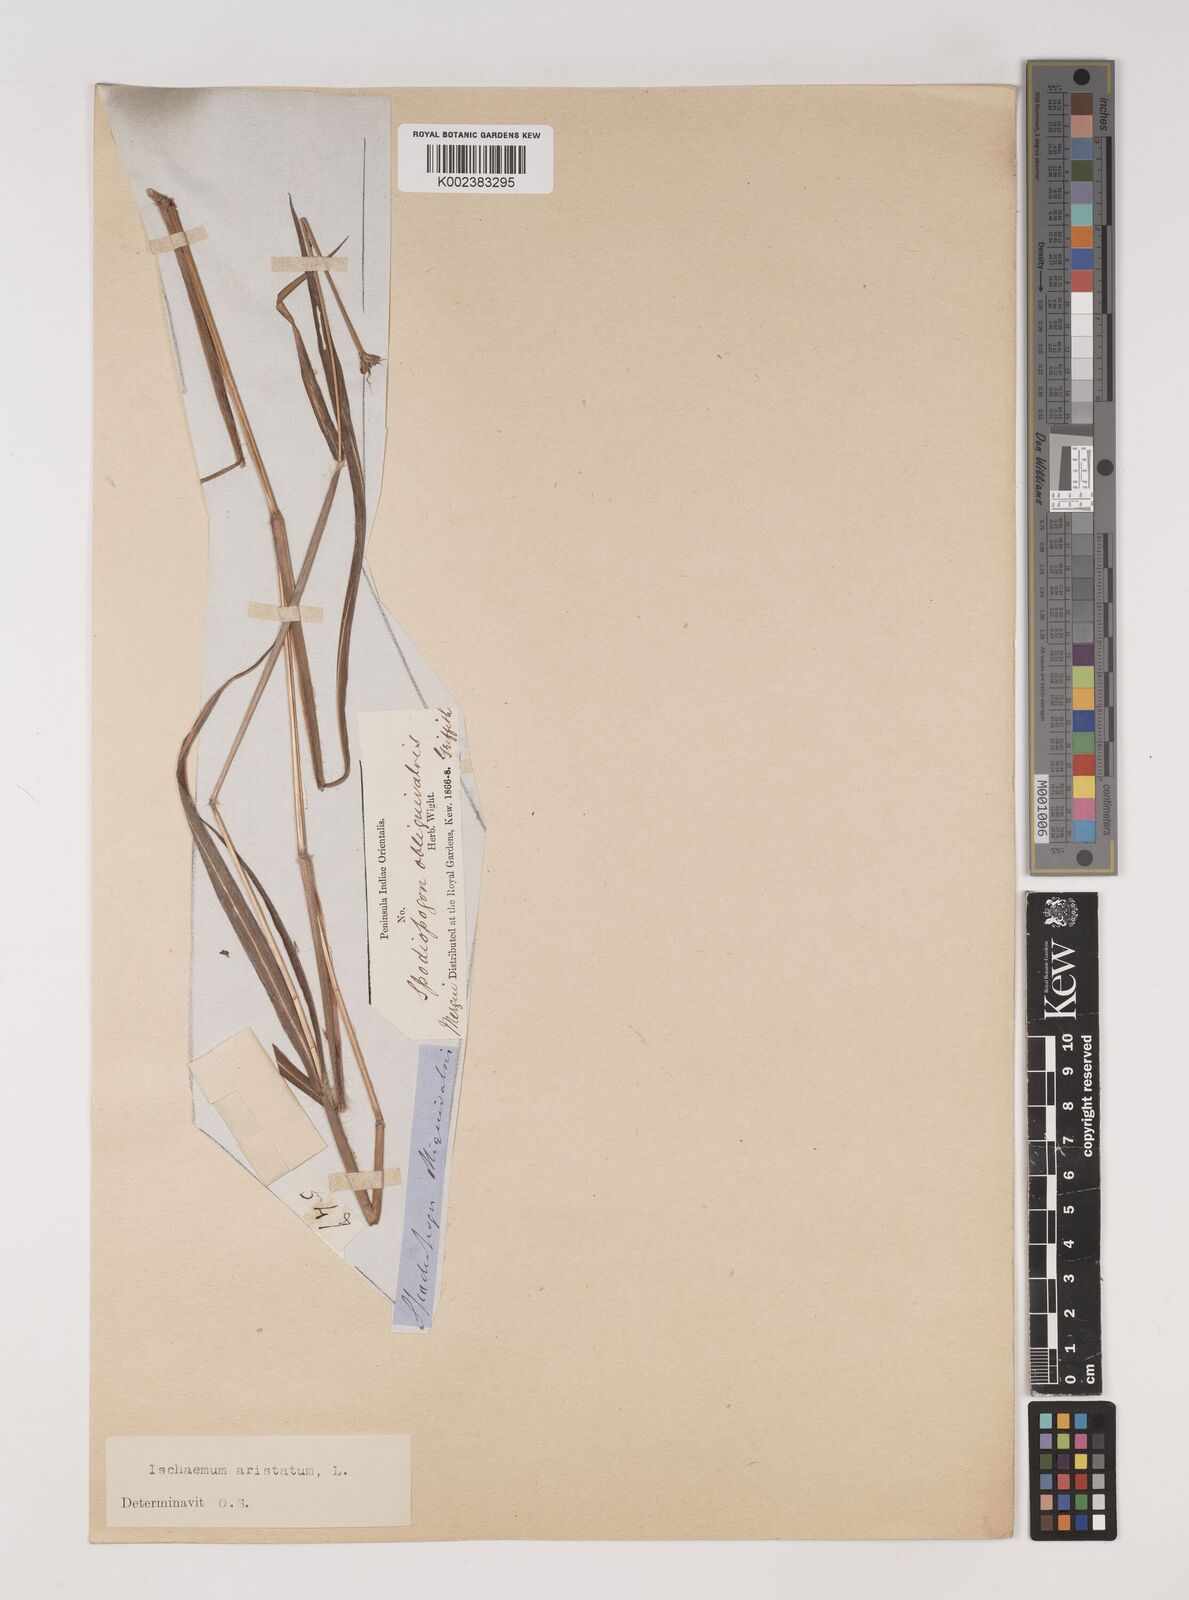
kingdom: Plantae
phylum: Tracheophyta
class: Liliopsida
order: Poales
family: Poaceae
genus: Polytrias
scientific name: Polytrias indica
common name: Indian murainagrass
